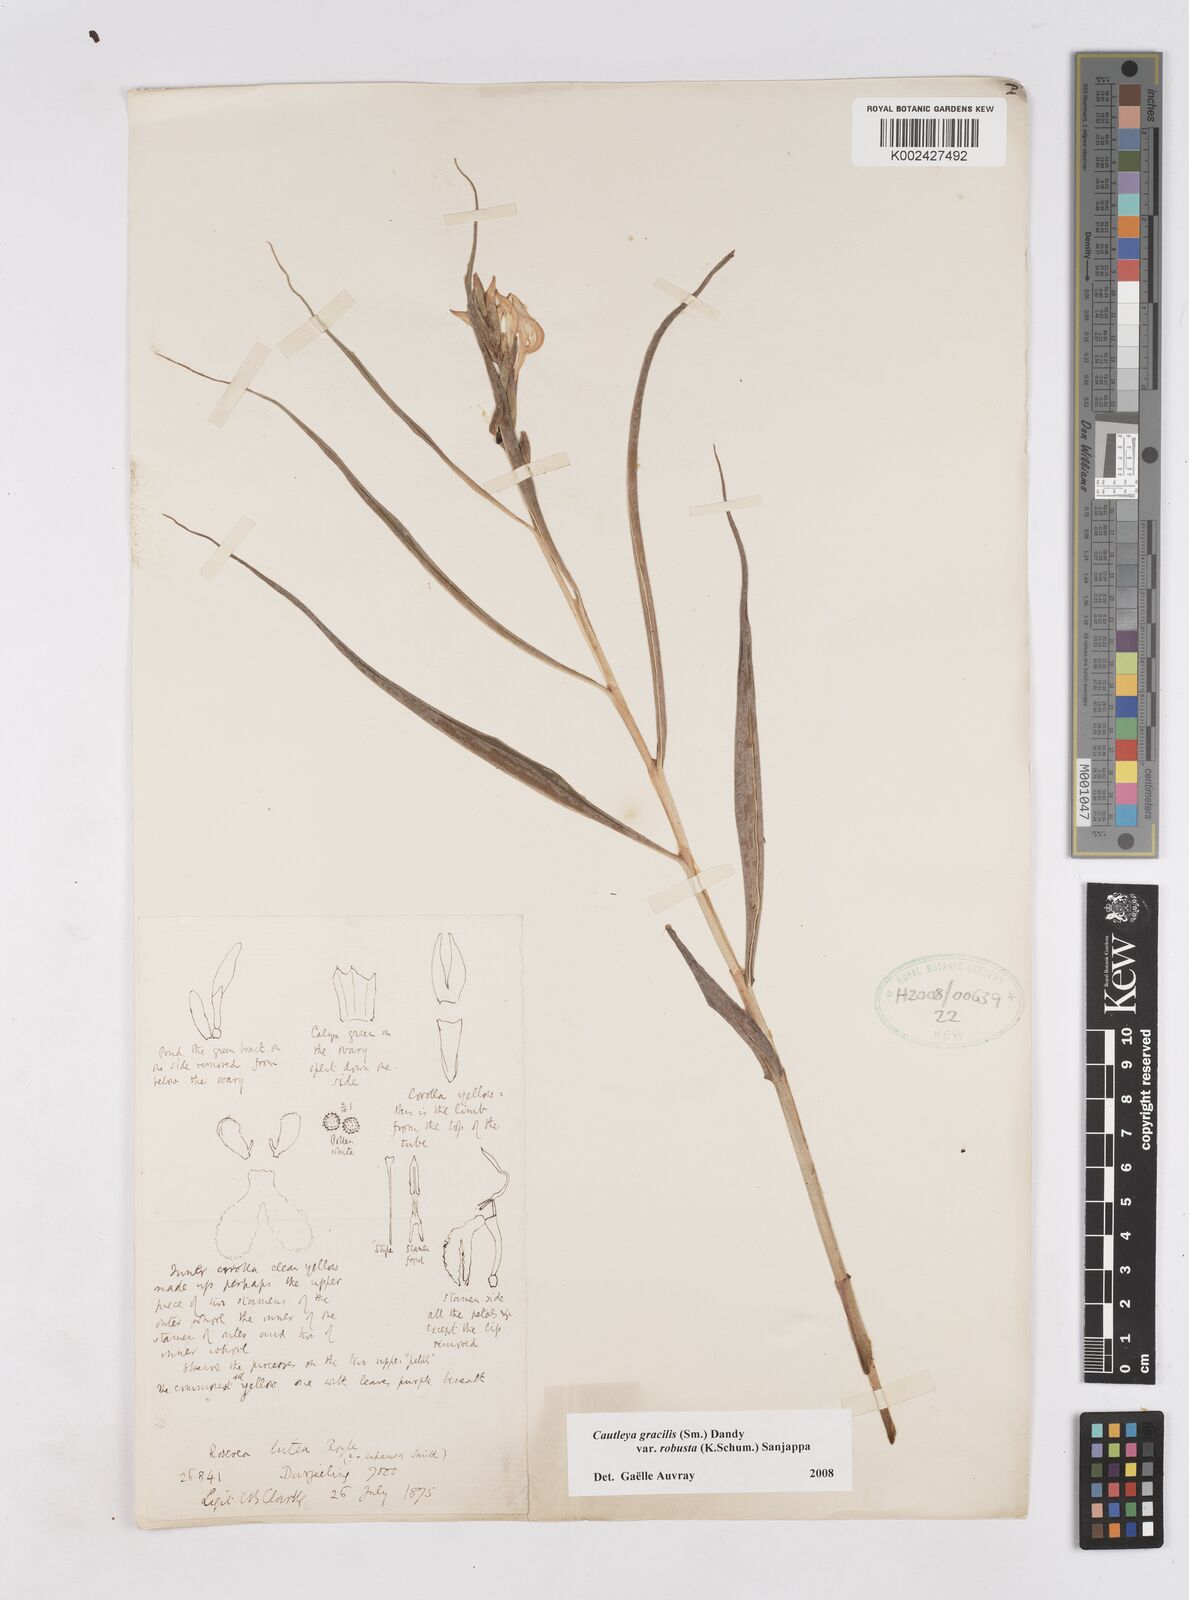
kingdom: Plantae
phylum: Tracheophyta
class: Liliopsida
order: Zingiberales
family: Zingiberaceae
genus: Cautleya
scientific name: Cautleya gracilis
